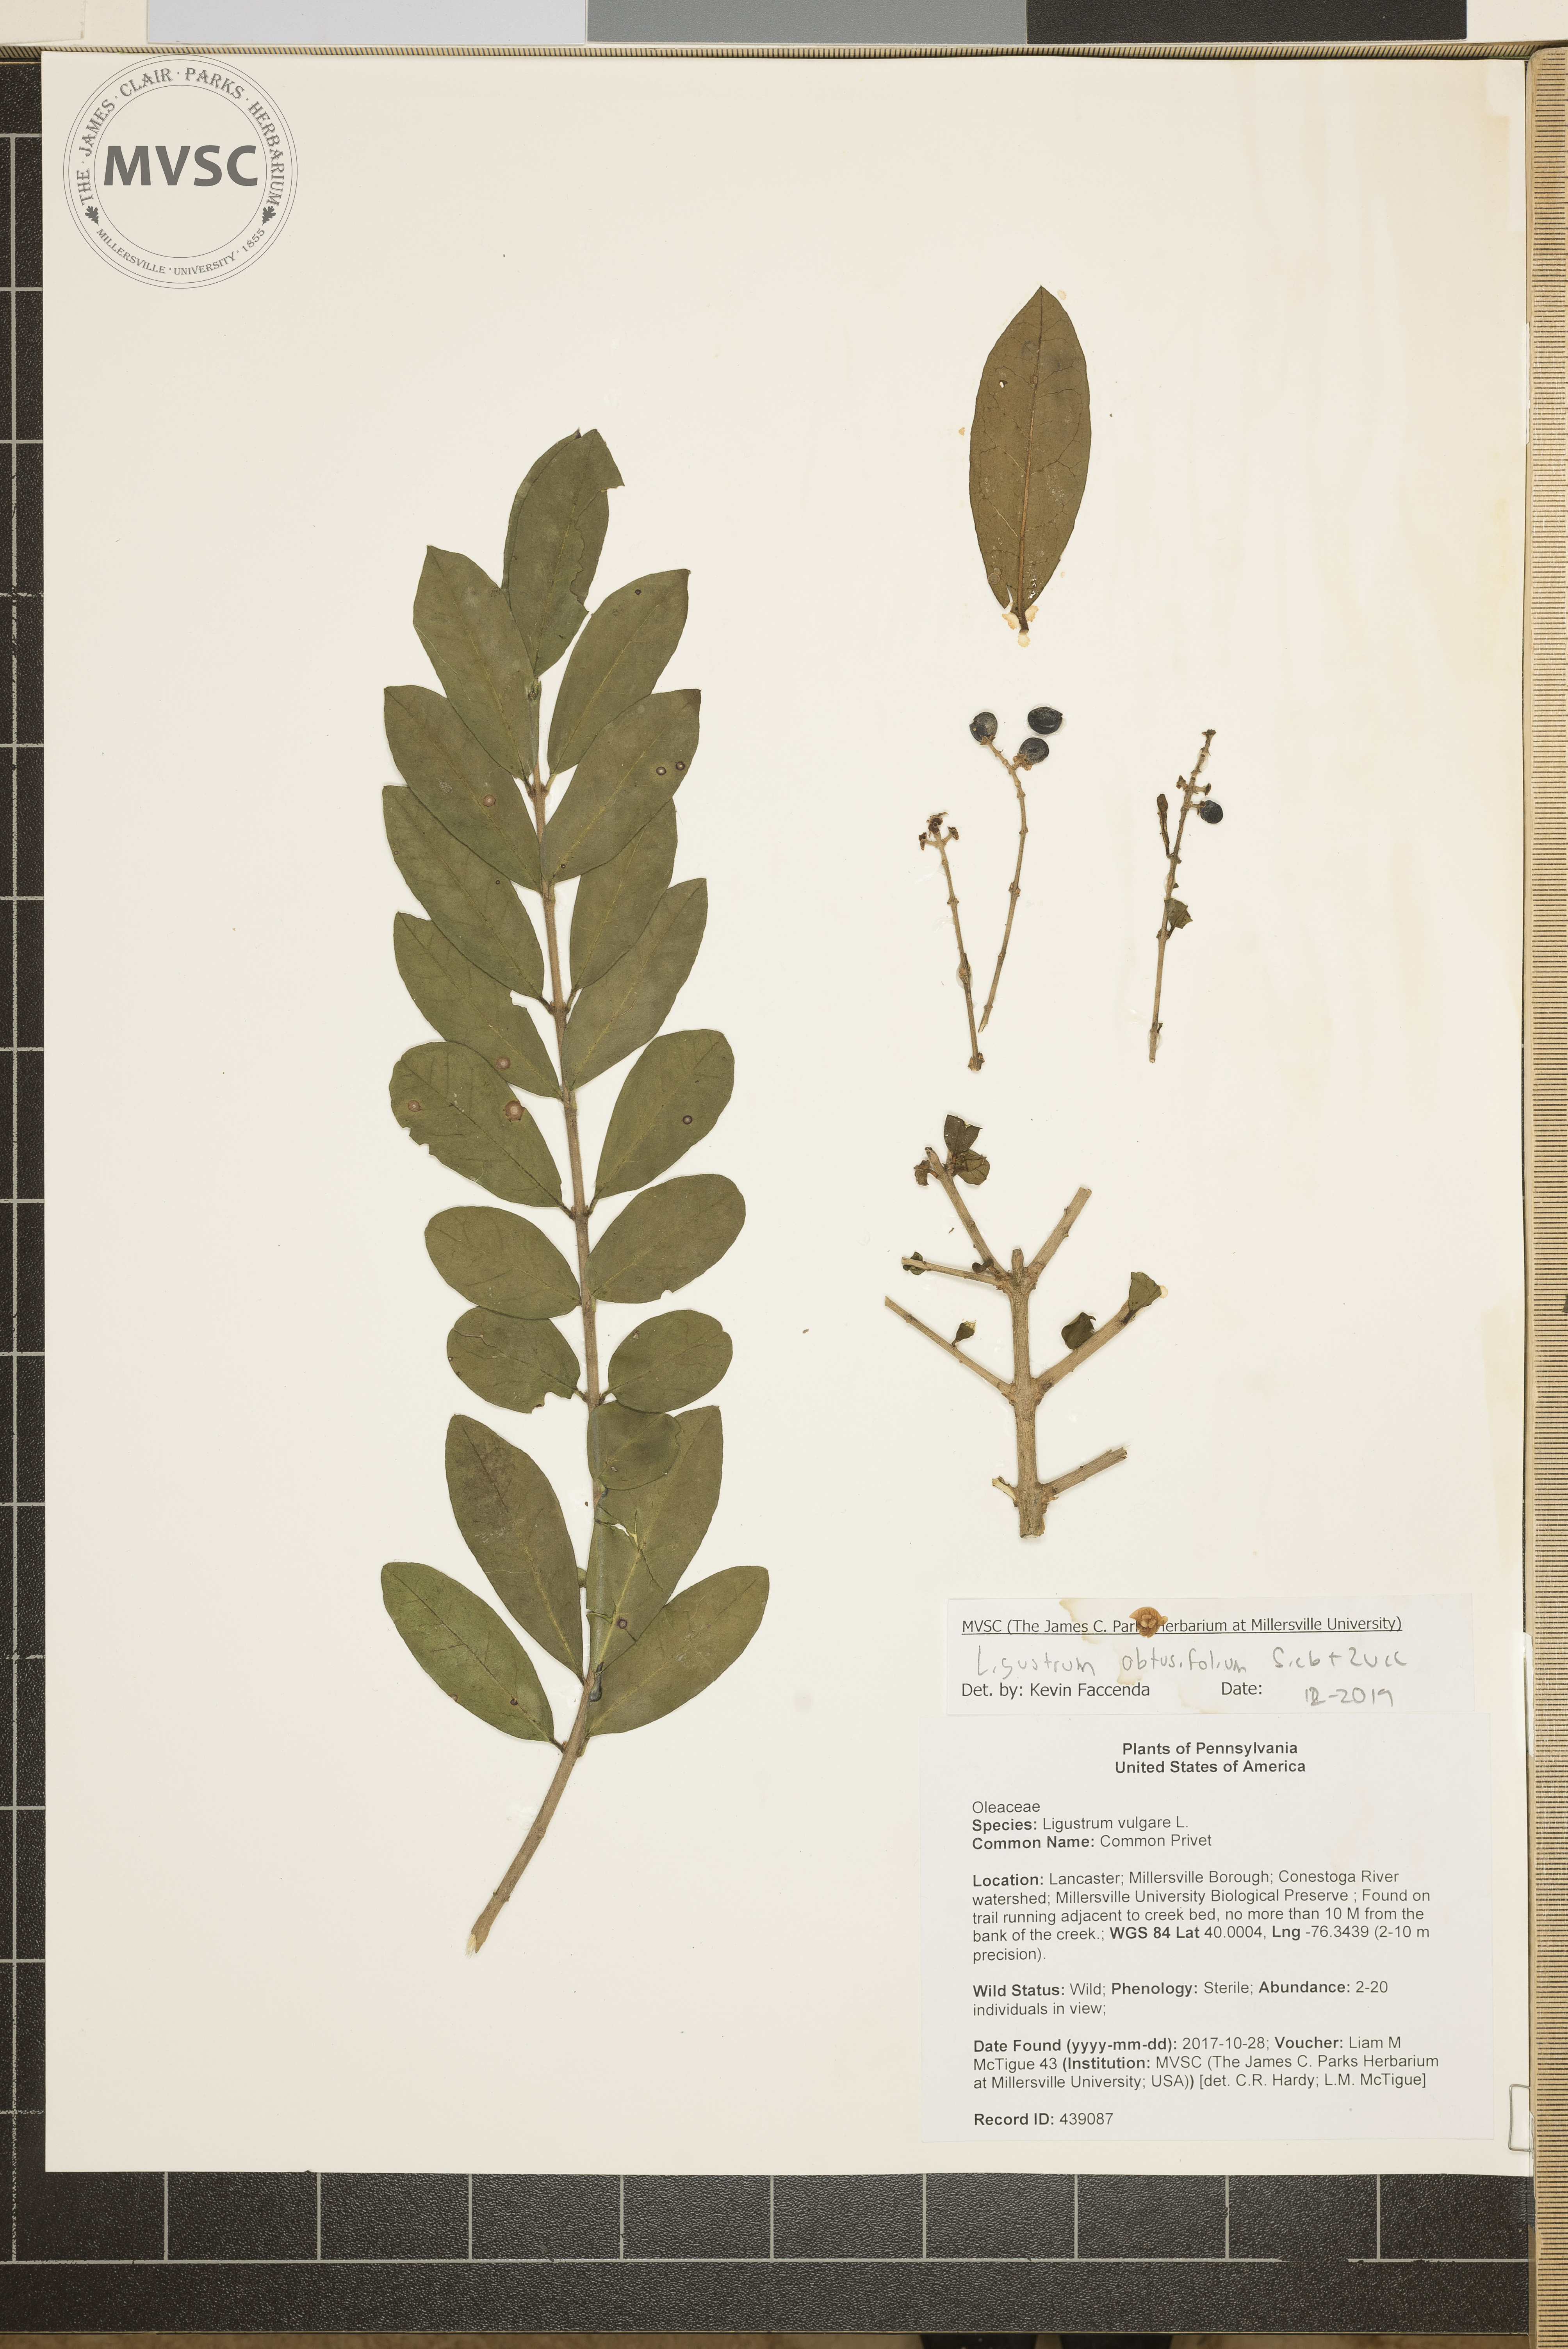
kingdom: Plantae
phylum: Tracheophyta
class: Magnoliopsida
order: Lamiales
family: Oleaceae
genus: Ligustrum
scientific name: Ligustrum obtusifolium
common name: Common Privet
